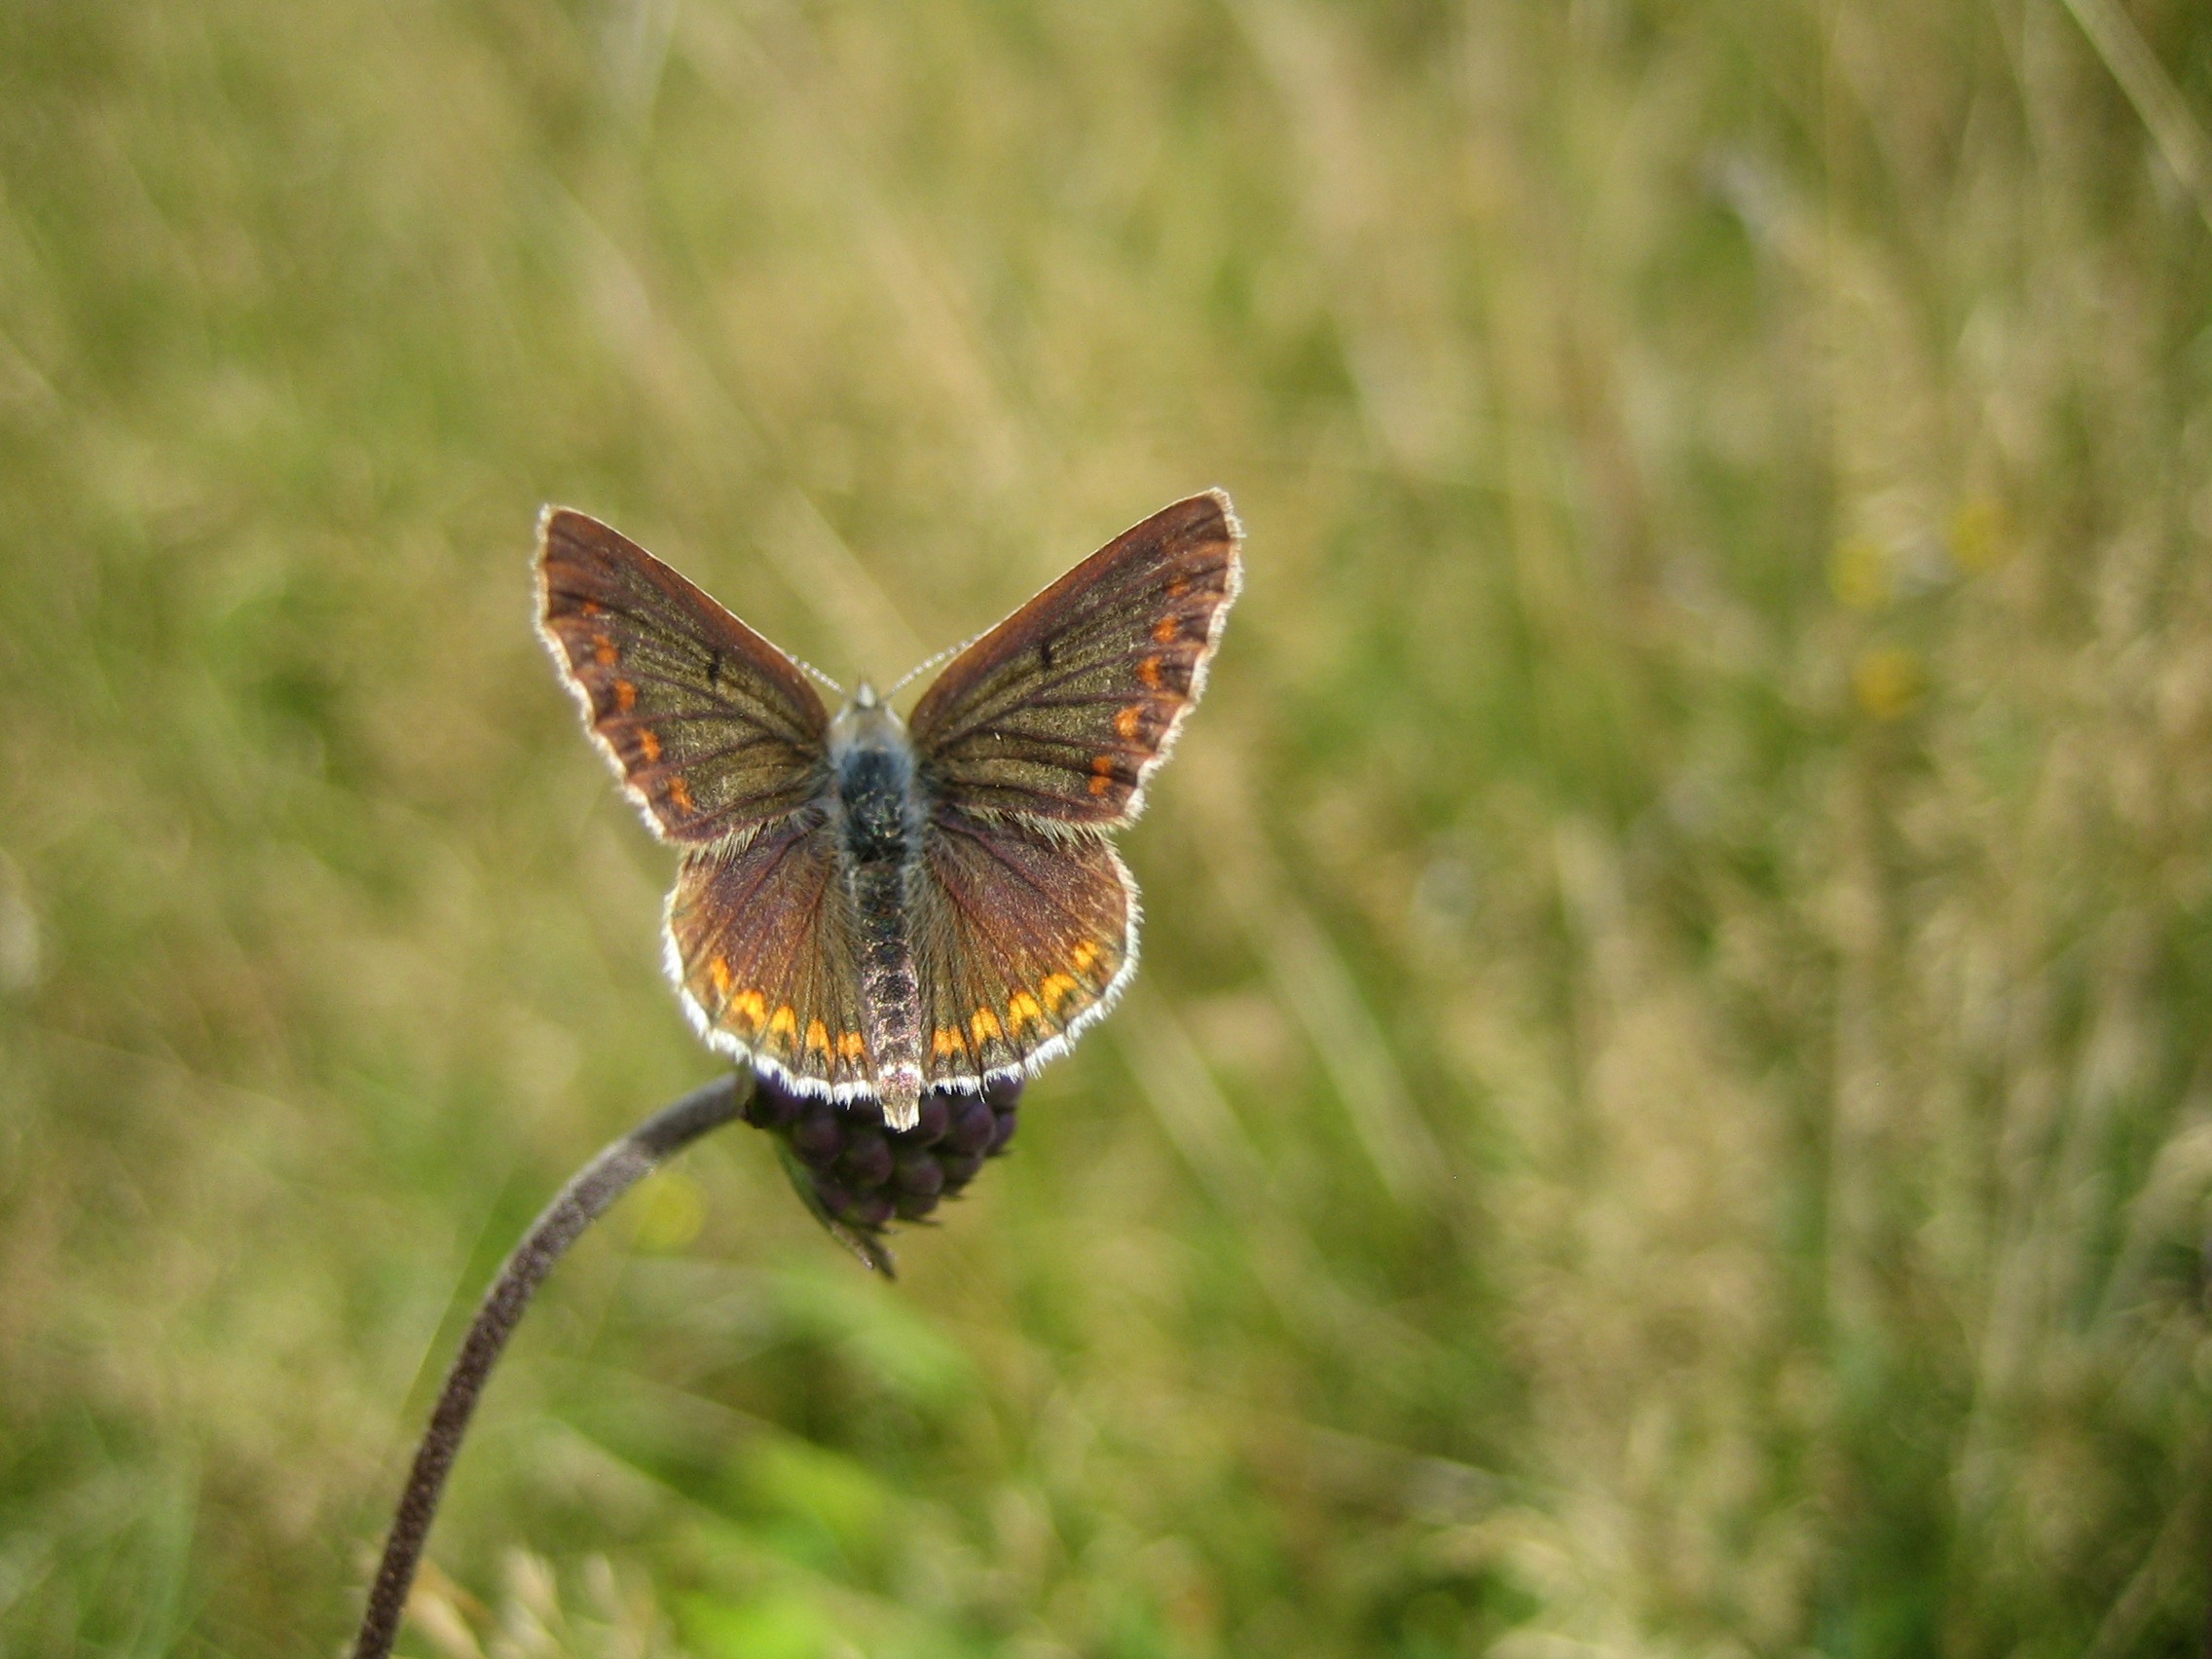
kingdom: Animalia
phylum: Arthropoda
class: Insecta
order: Lepidoptera
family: Lycaenidae
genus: Aricia
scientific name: Aricia agestis
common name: Rødplettet blåfugl
